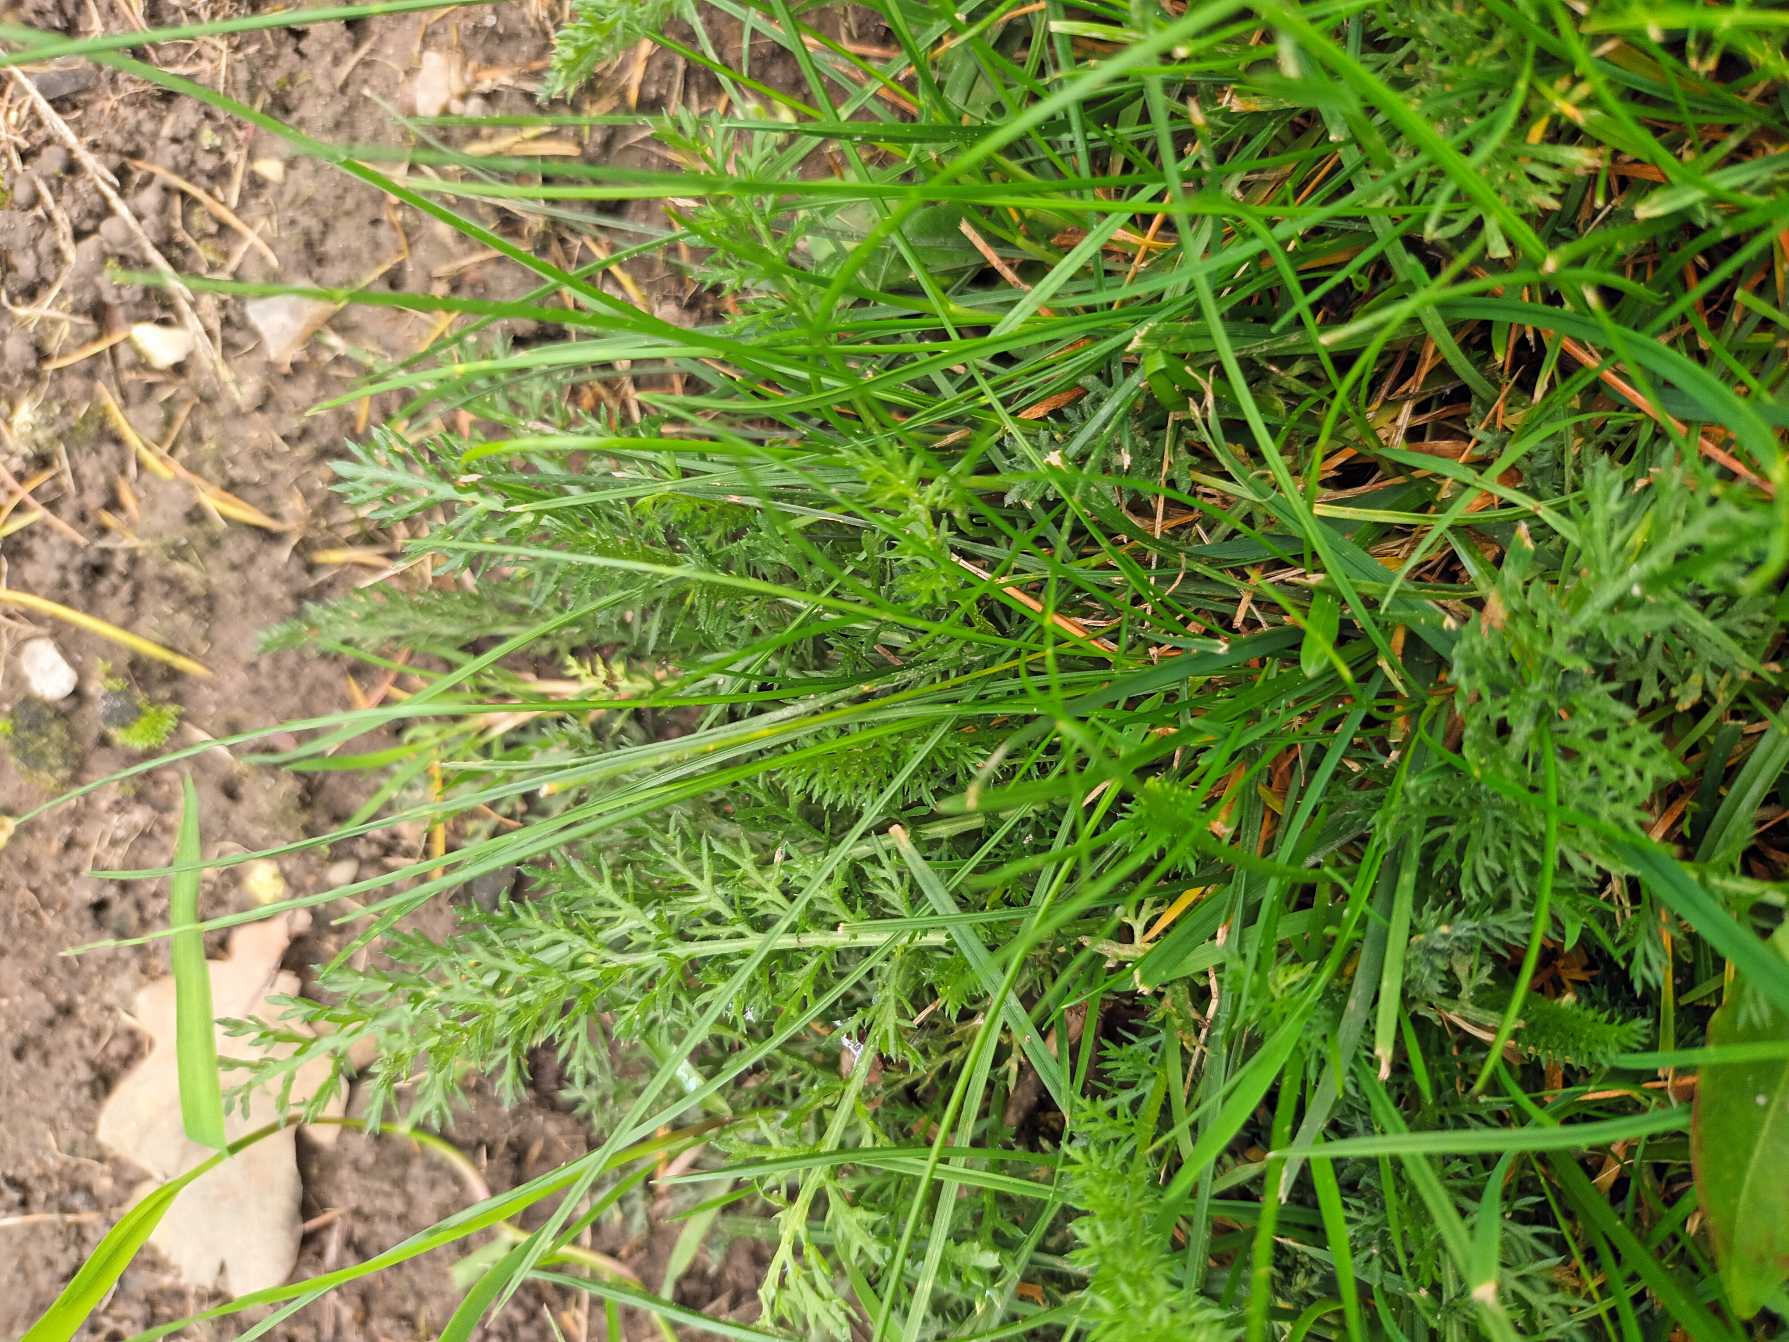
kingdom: Plantae
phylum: Tracheophyta
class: Magnoliopsida
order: Asterales
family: Asteraceae
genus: Achillea
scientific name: Achillea millefolium
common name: Almindelig røllike
